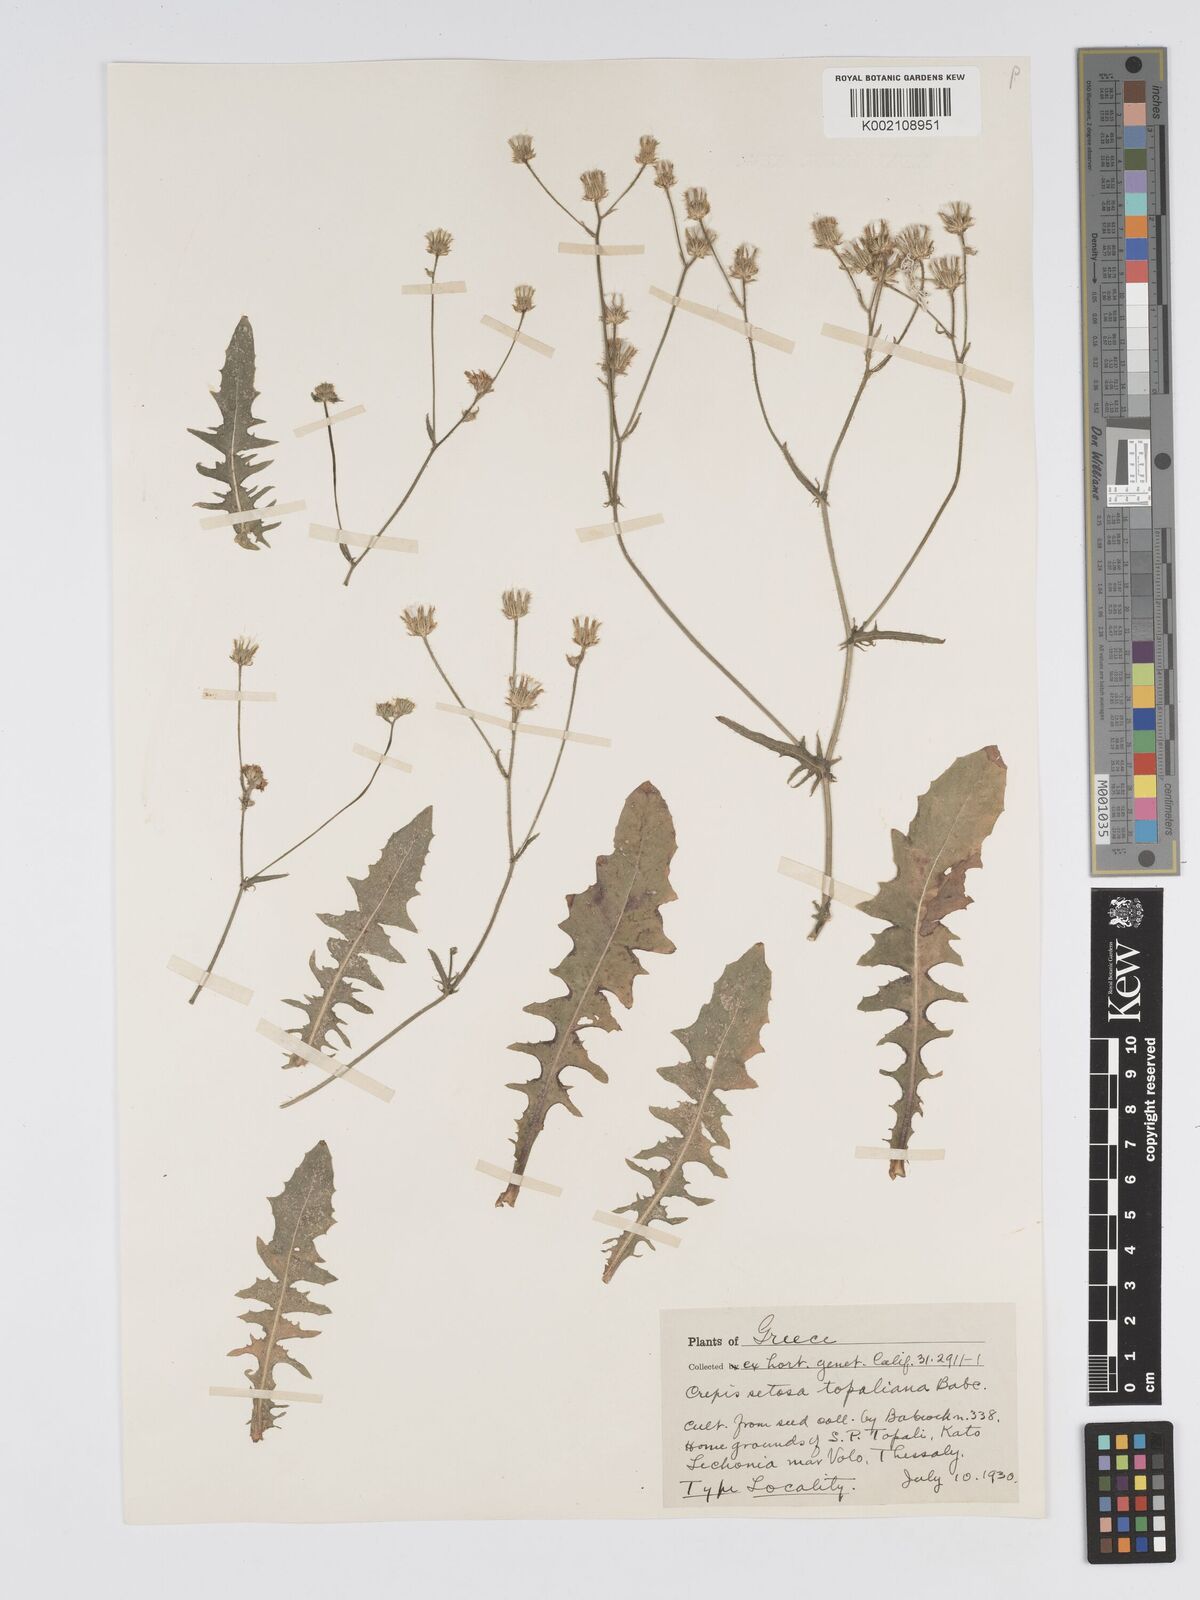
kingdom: Plantae
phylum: Tracheophyta
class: Magnoliopsida
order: Asterales
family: Asteraceae
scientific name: Asteraceae
